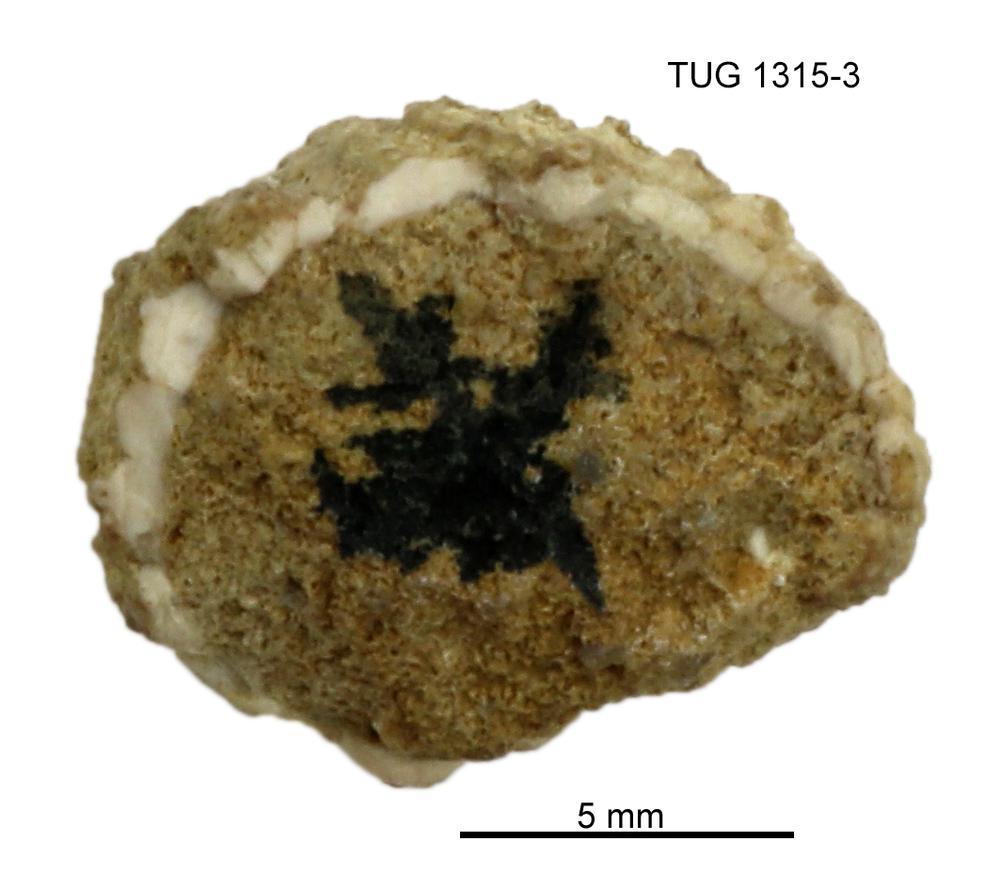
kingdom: Animalia
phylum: Echinodermata
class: Echinoidea
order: Bothriocidaroida
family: Bothriocidaridae
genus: Bothriocidaris
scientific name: Bothriocidaris
